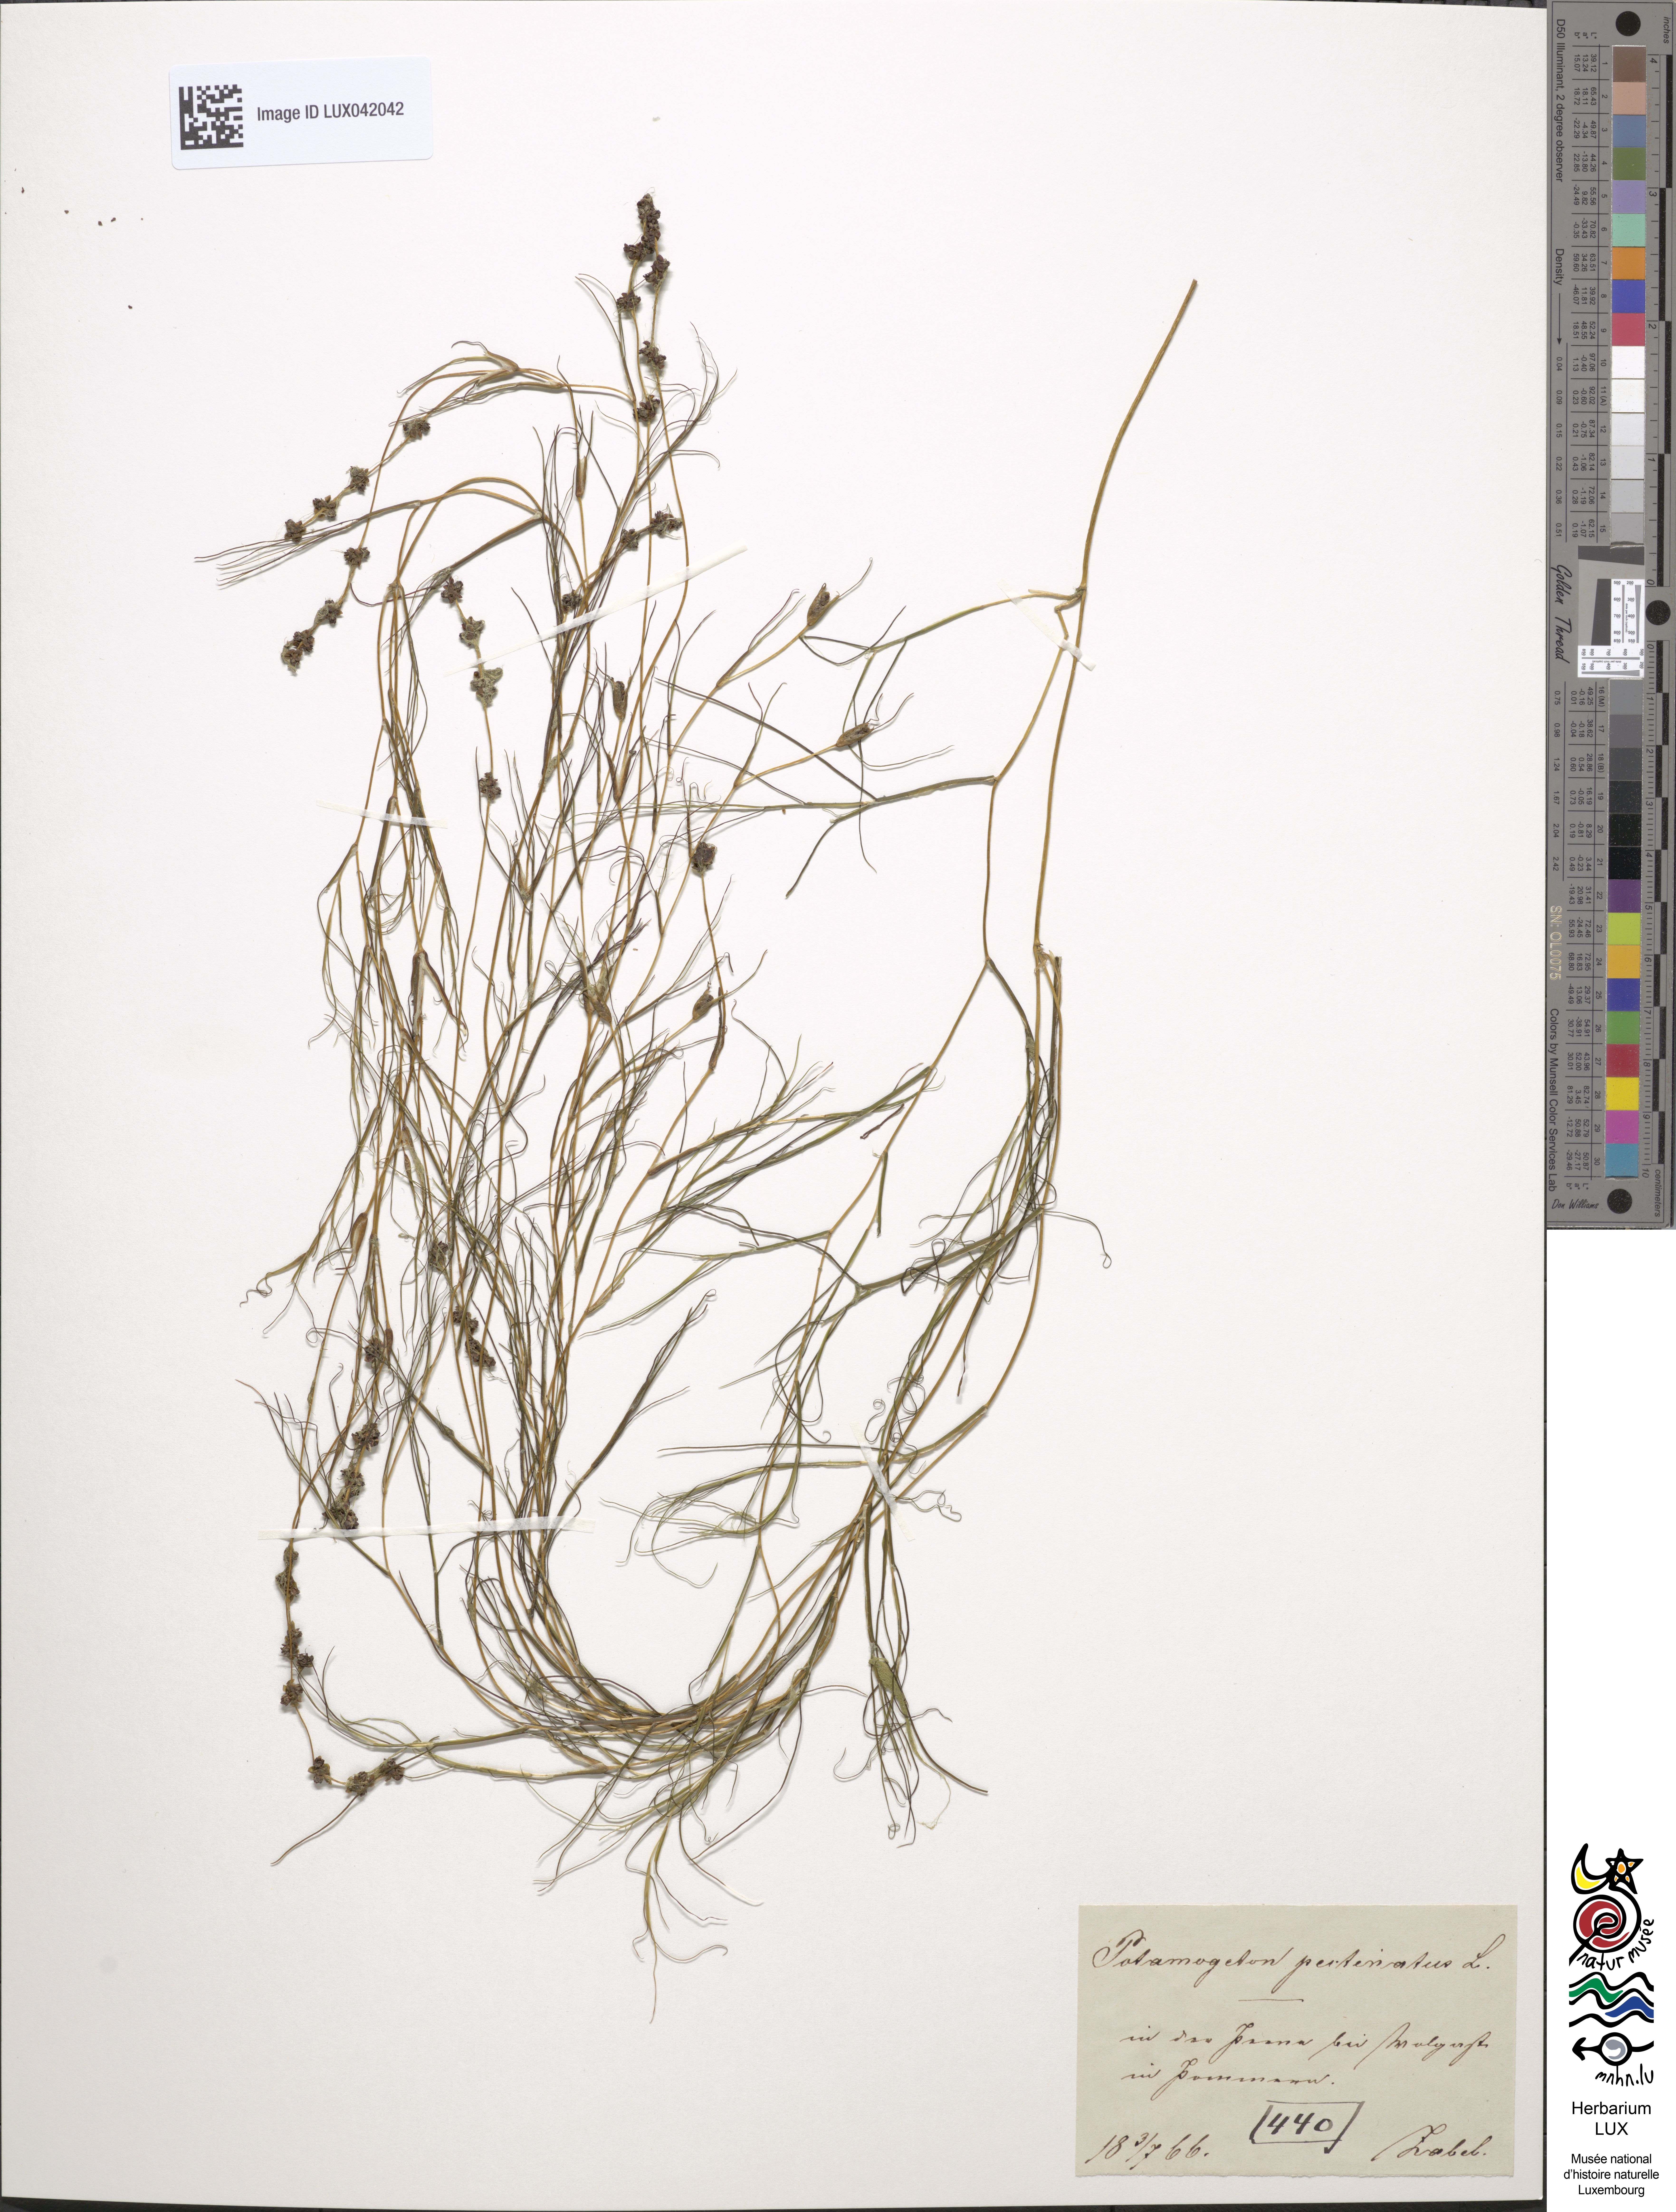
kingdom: Plantae
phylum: Tracheophyta
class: Liliopsida
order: Alismatales
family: Potamogetonaceae
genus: Stuckenia
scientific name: Stuckenia pectinata
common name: Sago pondweed
